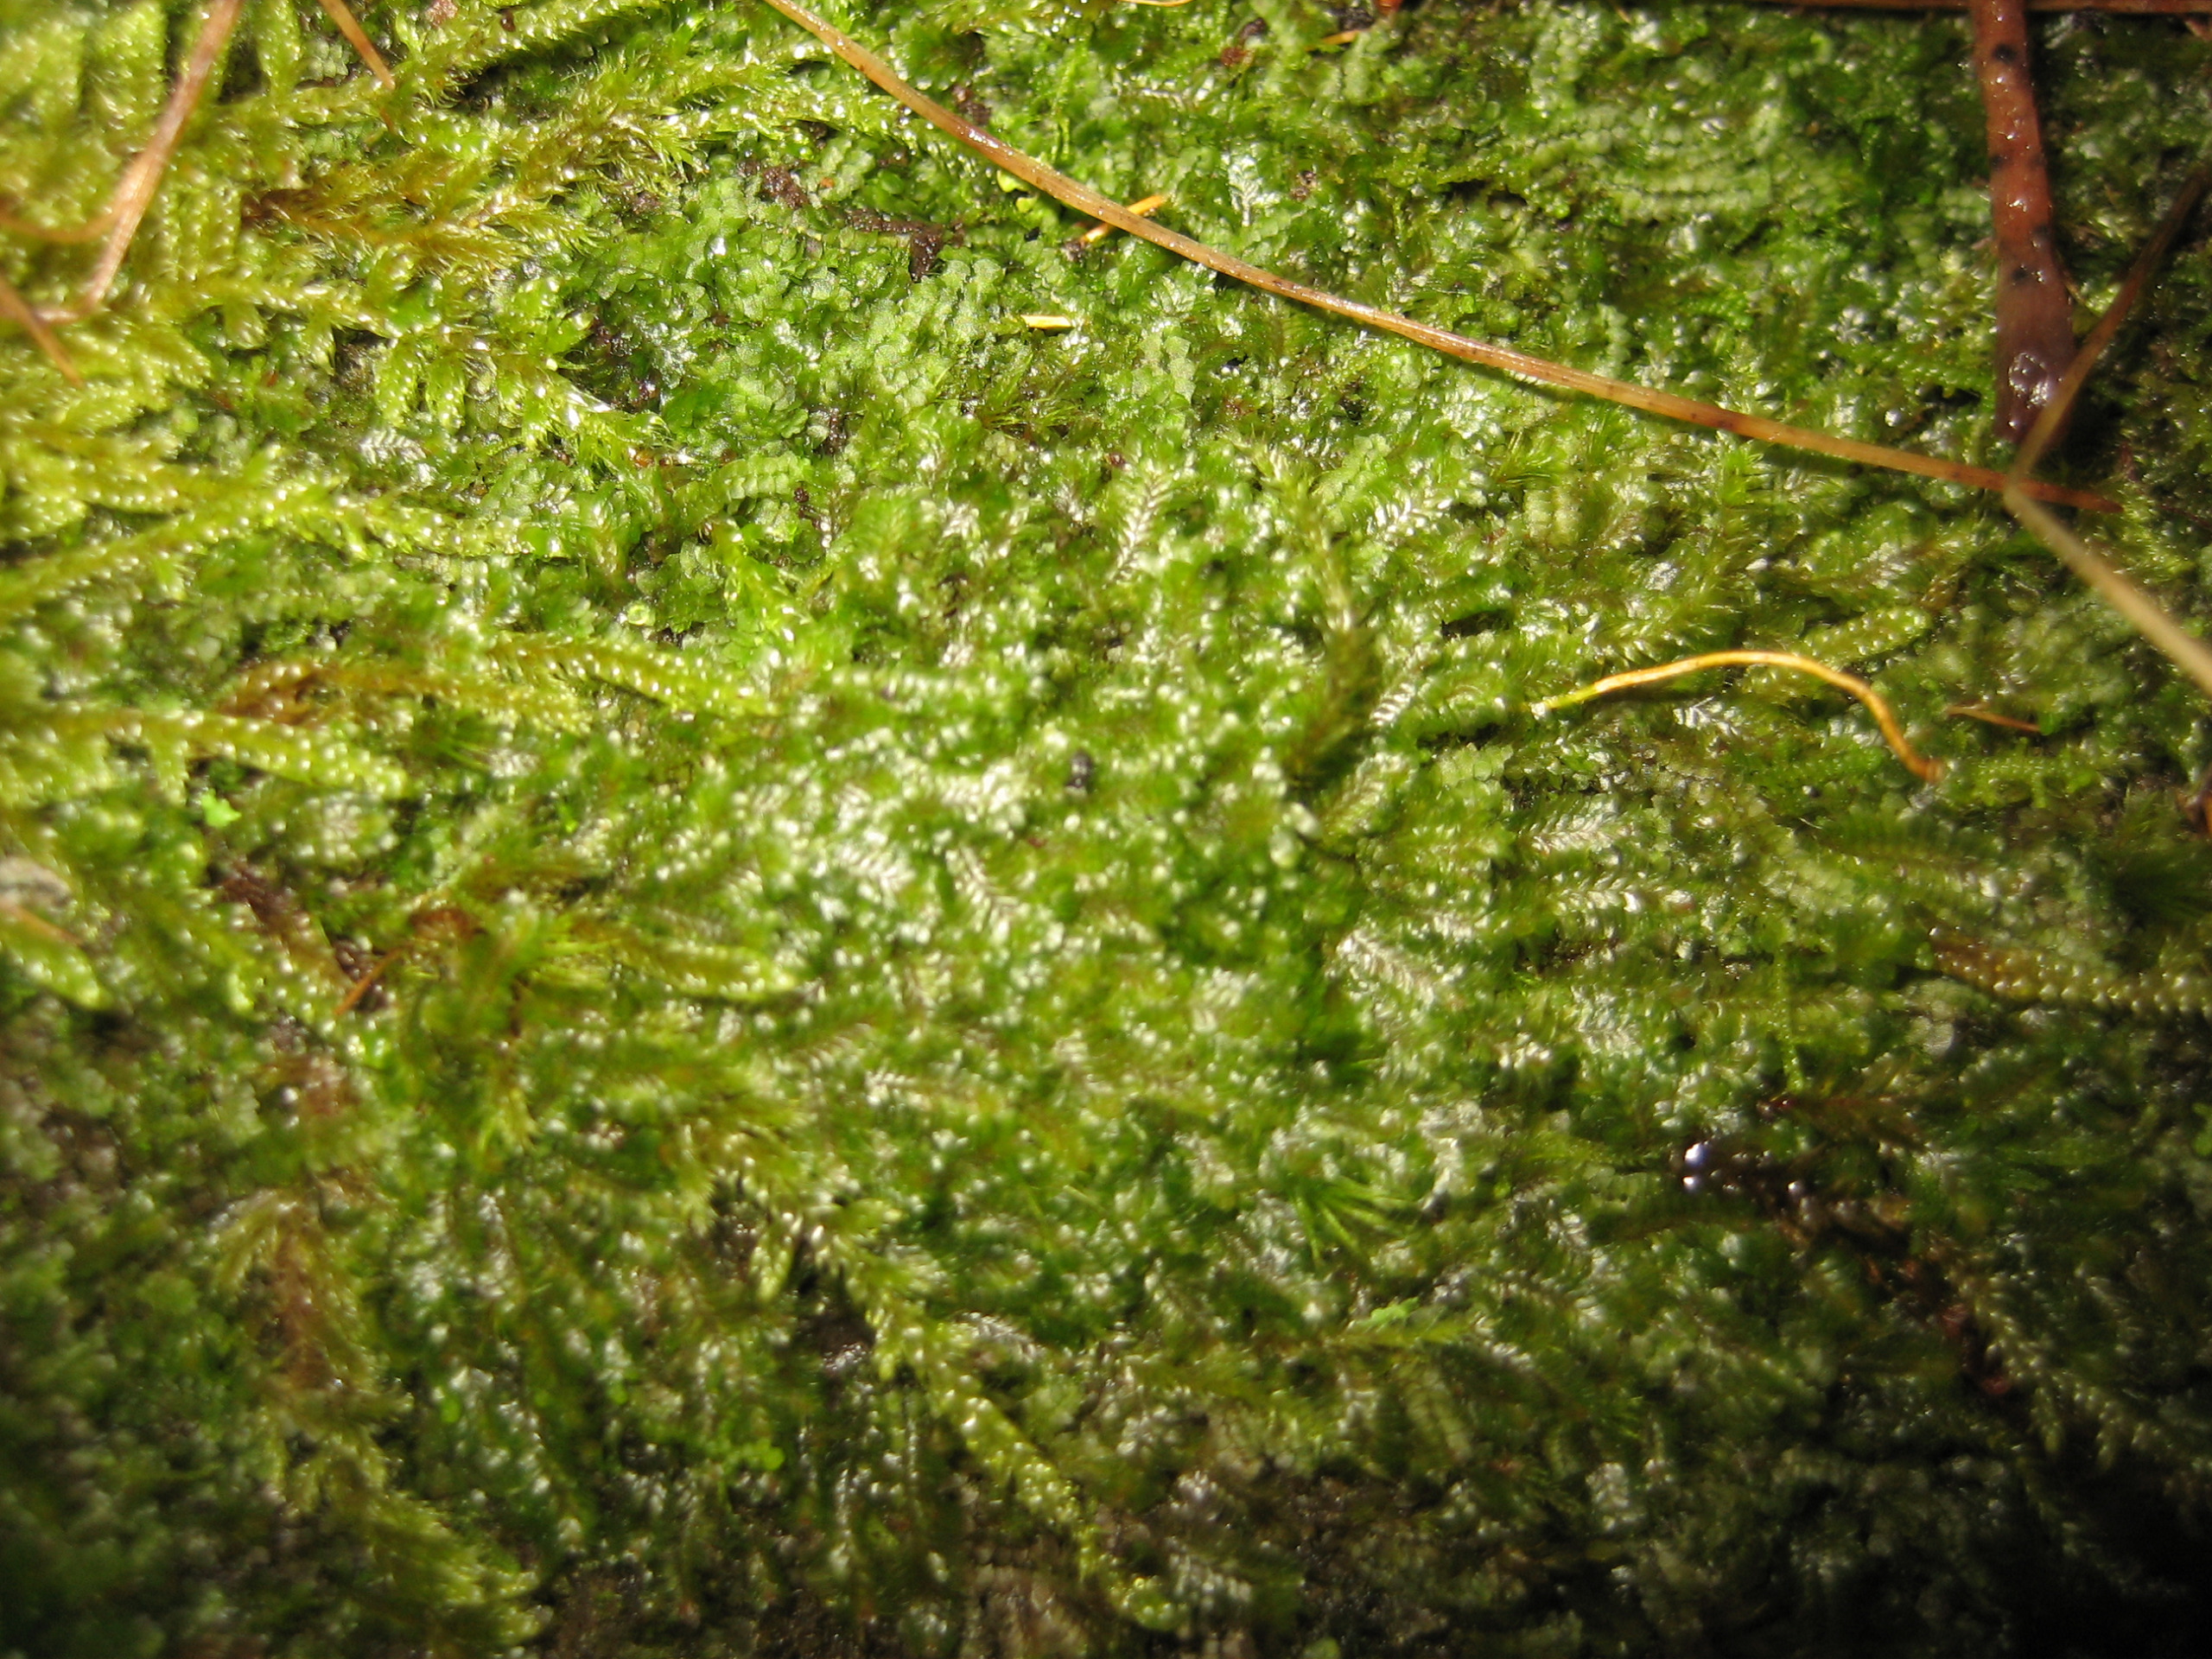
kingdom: Plantae
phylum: Marchantiophyta
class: Jungermanniopsida
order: Jungermanniales
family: Scapaniaceae
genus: Diplophyllum
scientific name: Diplophyllum albicans
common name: Stribet dobbeltblad
